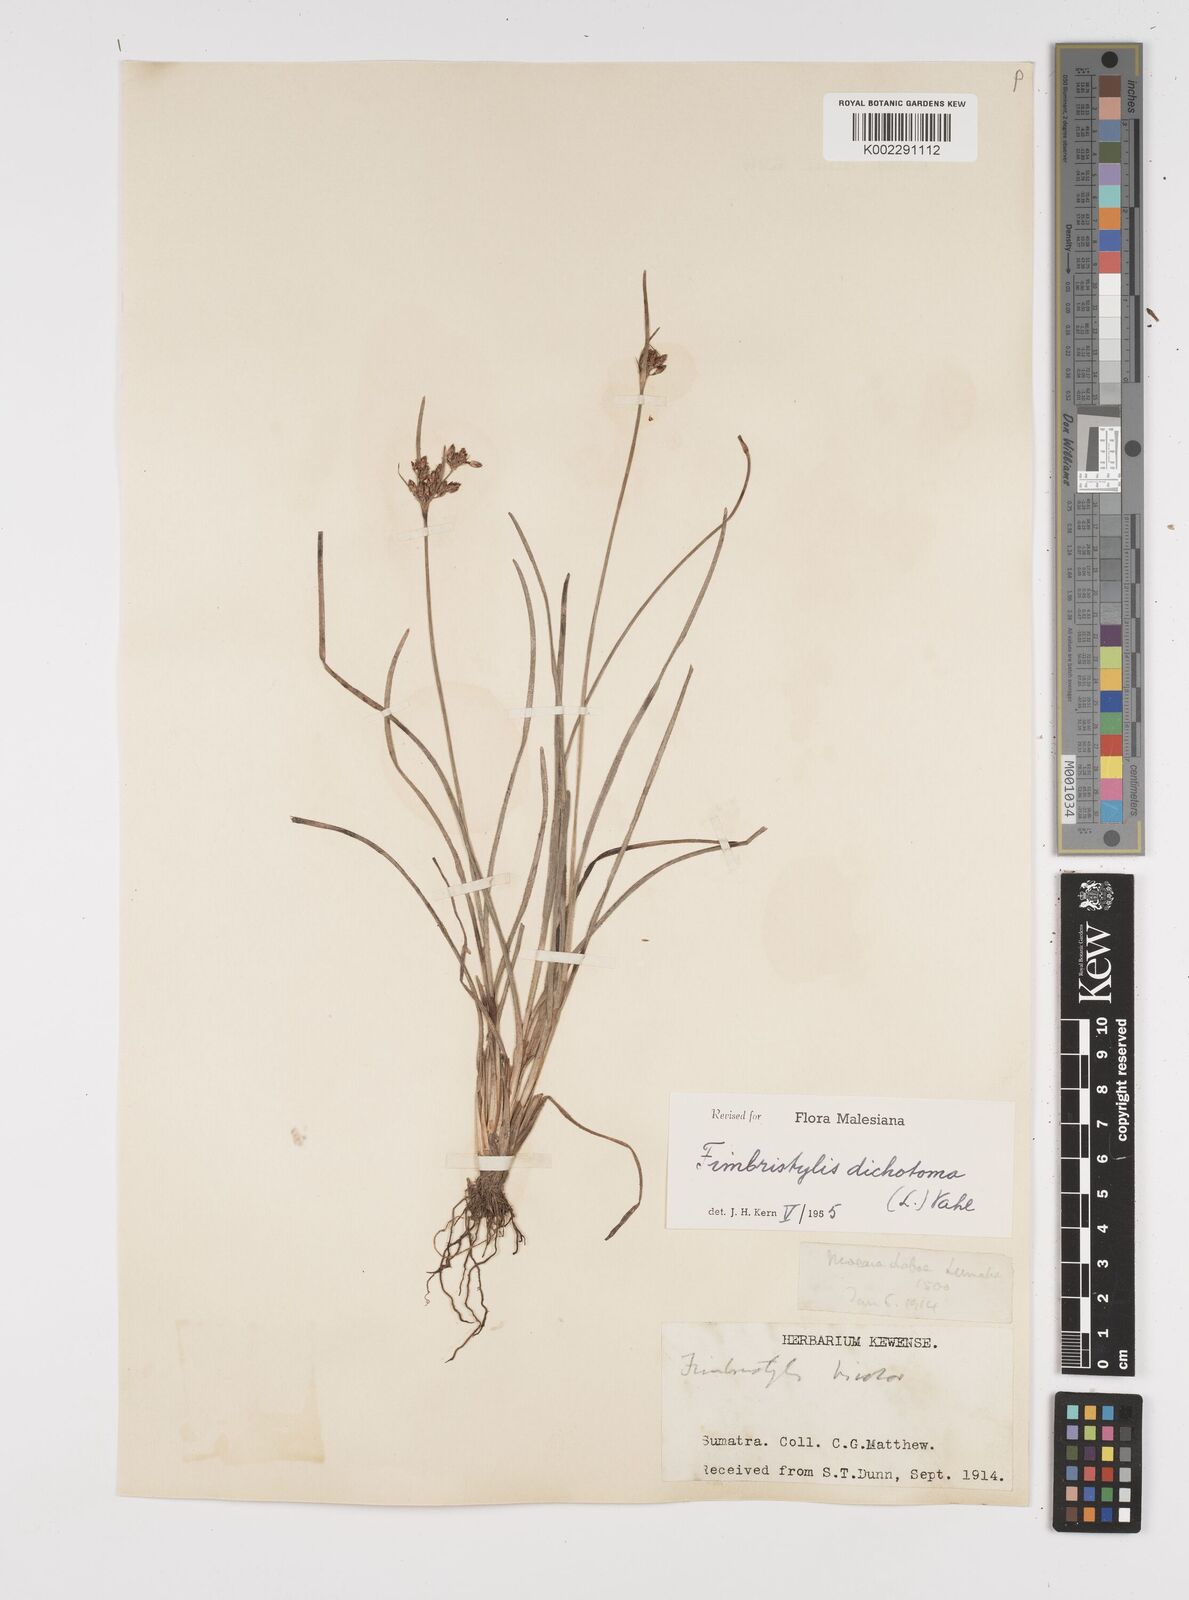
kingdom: Plantae
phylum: Tracheophyta
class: Liliopsida
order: Poales
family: Cyperaceae
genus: Fimbristylis
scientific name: Fimbristylis dichotoma
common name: Forked fimbry
